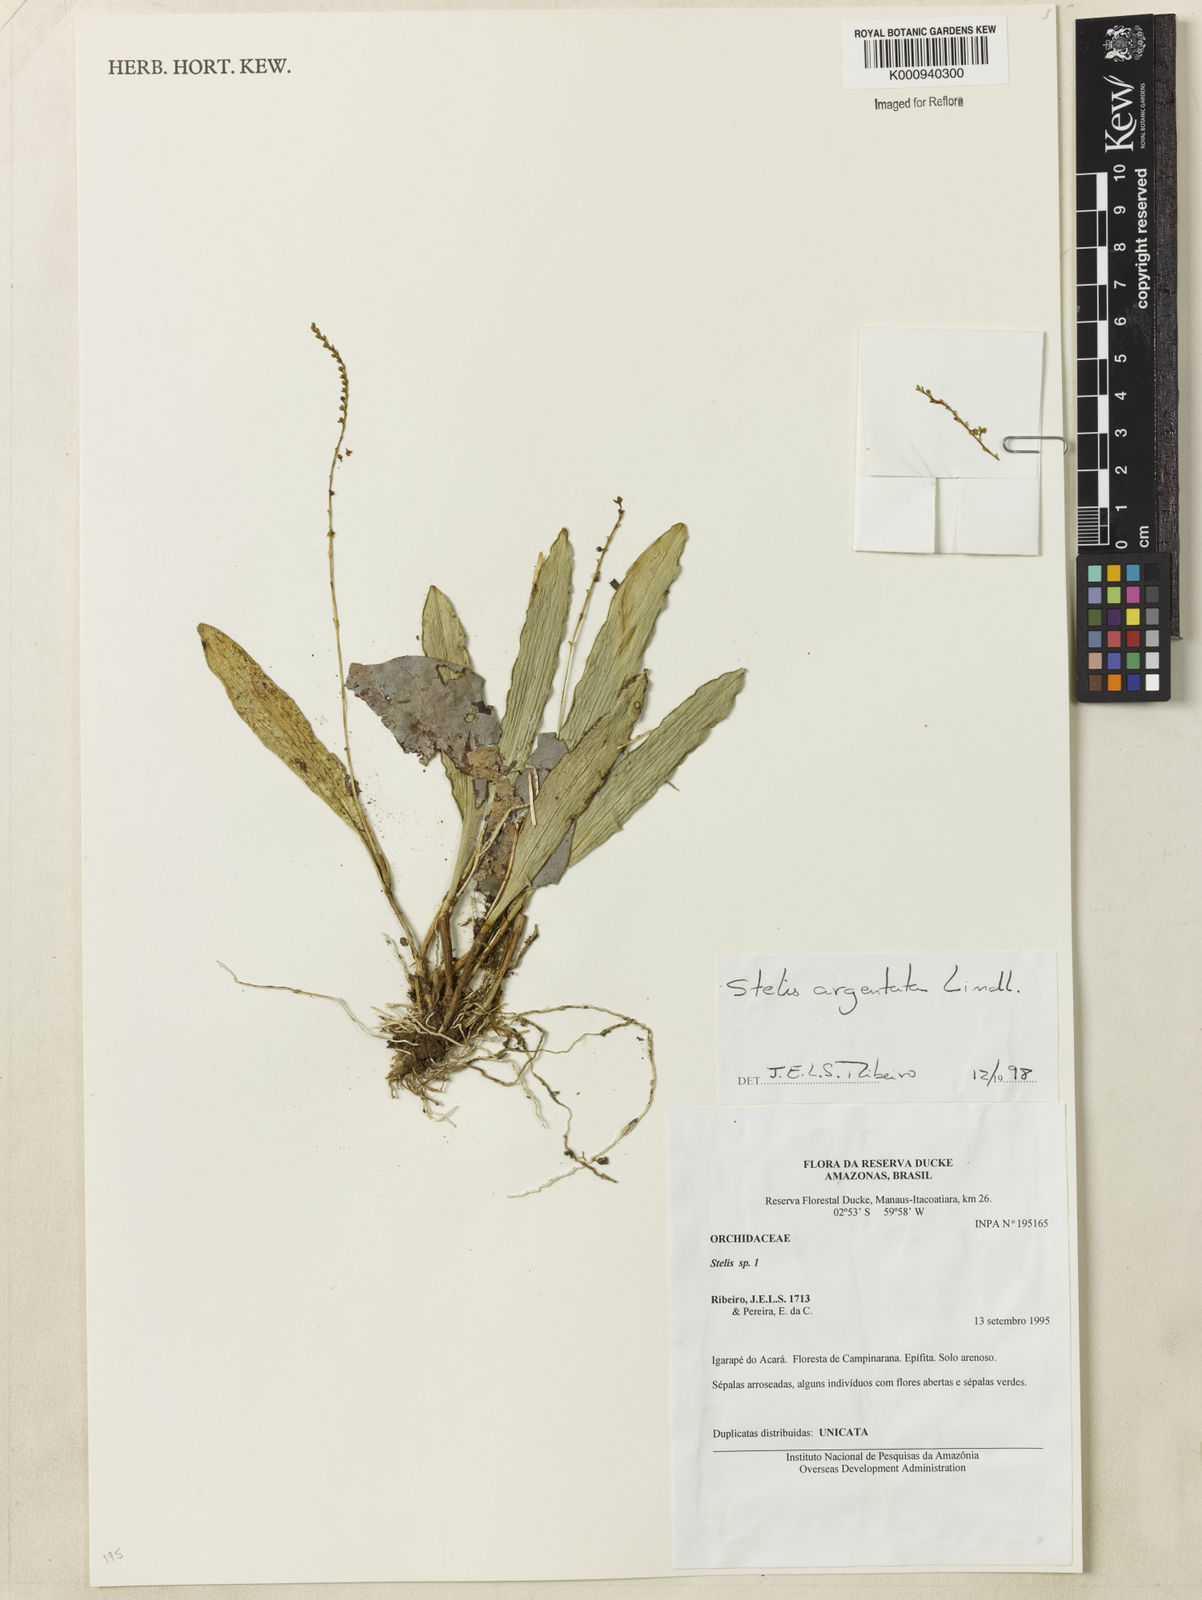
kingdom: Plantae
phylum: Tracheophyta
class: Liliopsida
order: Asparagales
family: Orchidaceae
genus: Stelis
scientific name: Stelis argentata
